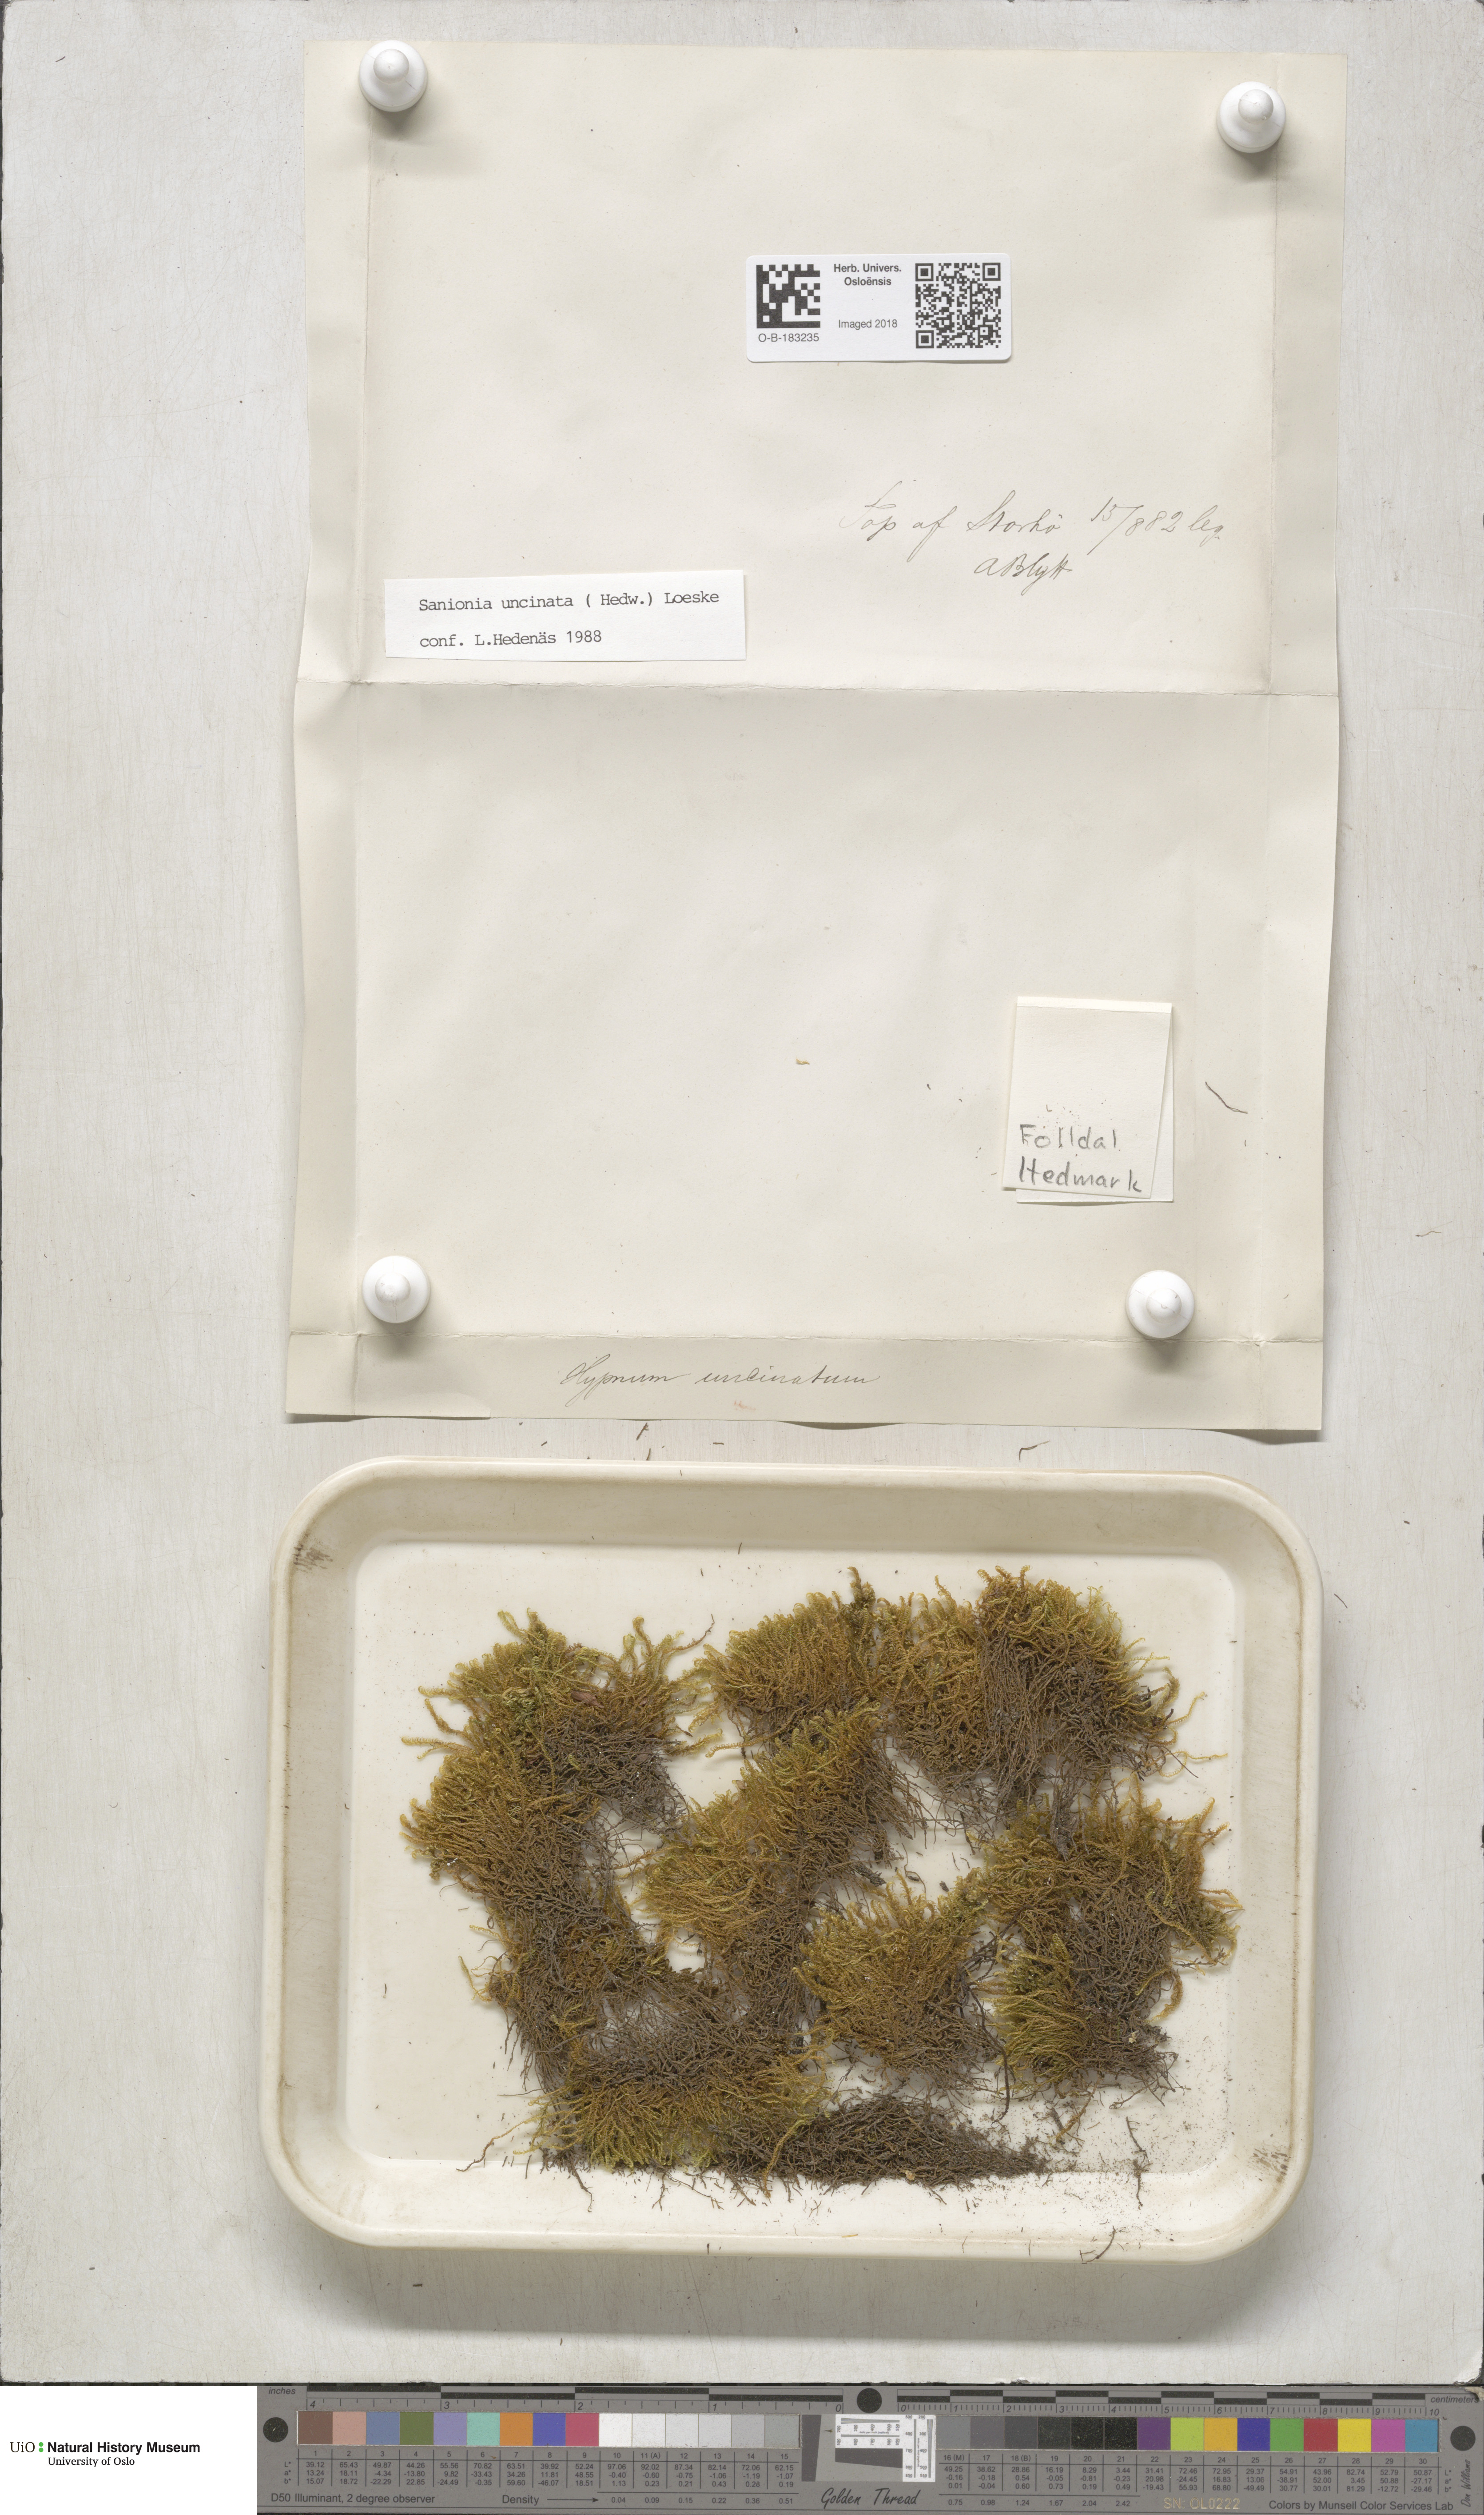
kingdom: Plantae
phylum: Bryophyta
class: Bryopsida
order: Hypnales
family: Scorpidiaceae
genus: Sanionia
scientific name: Sanionia uncinata
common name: Sickle moss
